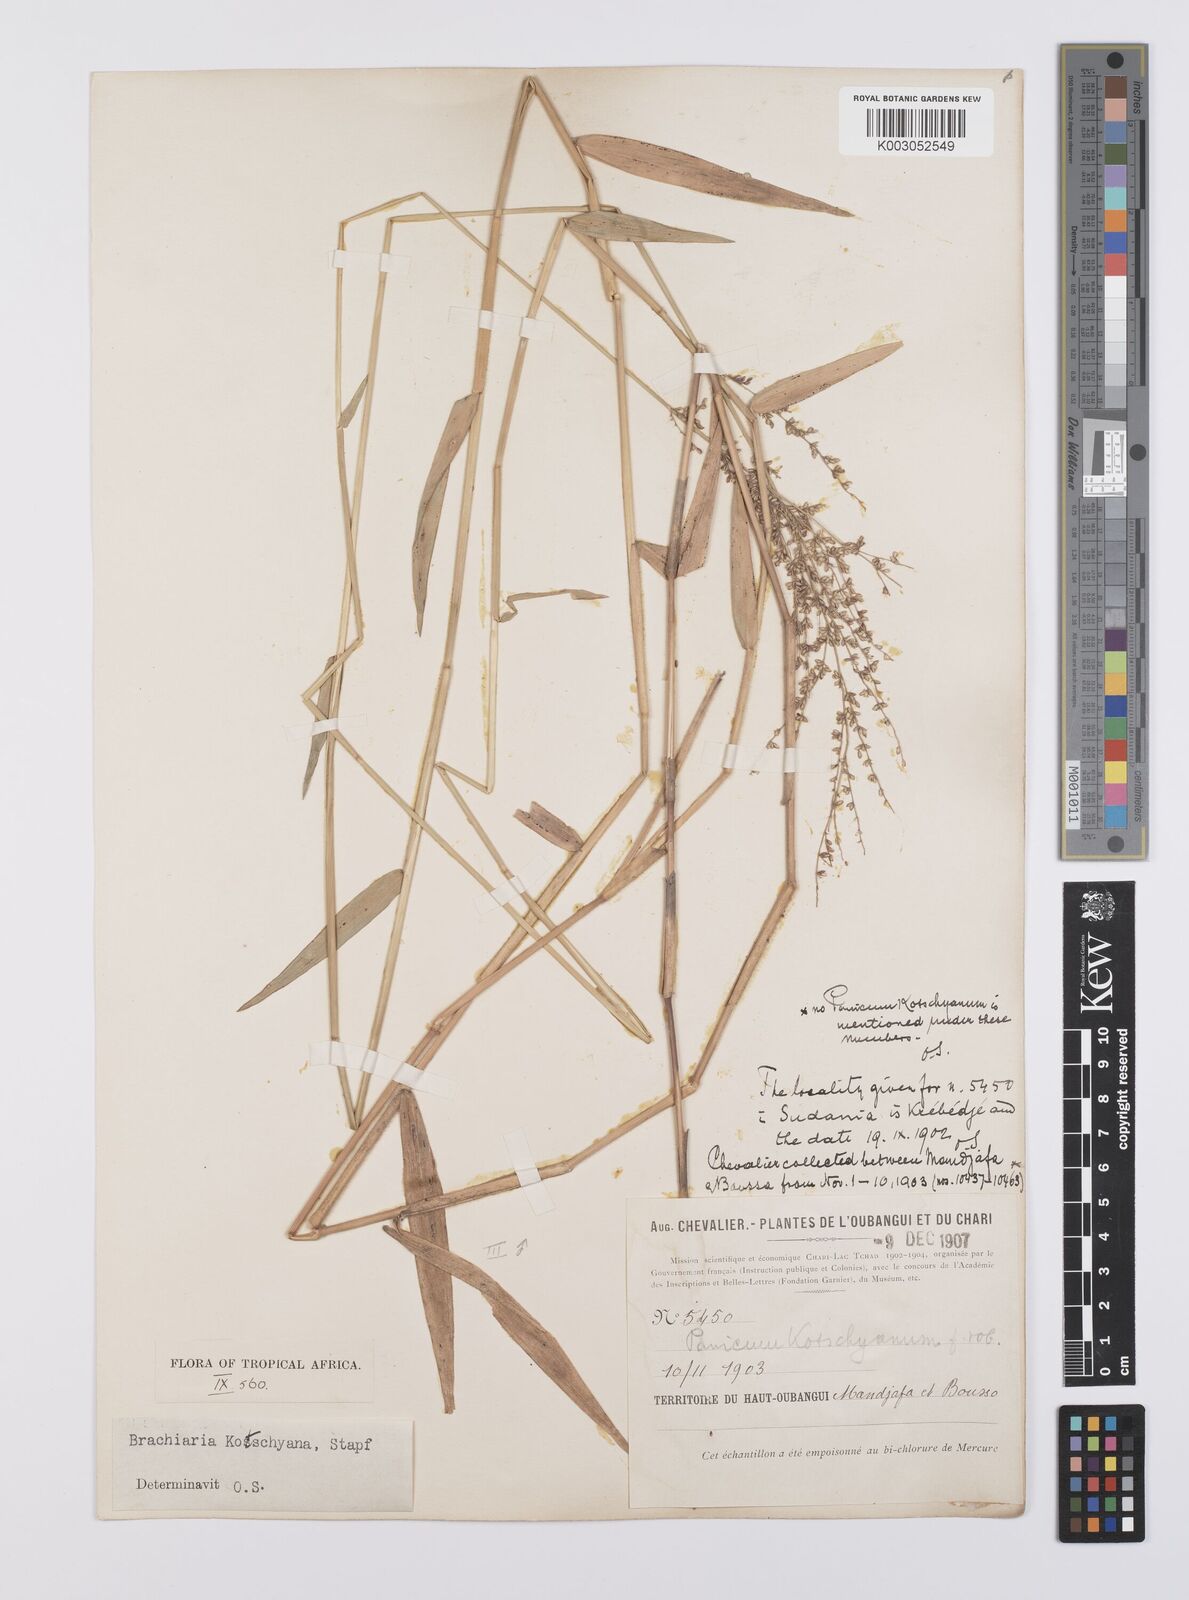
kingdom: Plantae
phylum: Tracheophyta
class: Liliopsida
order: Poales
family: Poaceae
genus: Urochloa
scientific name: Urochloa comata
